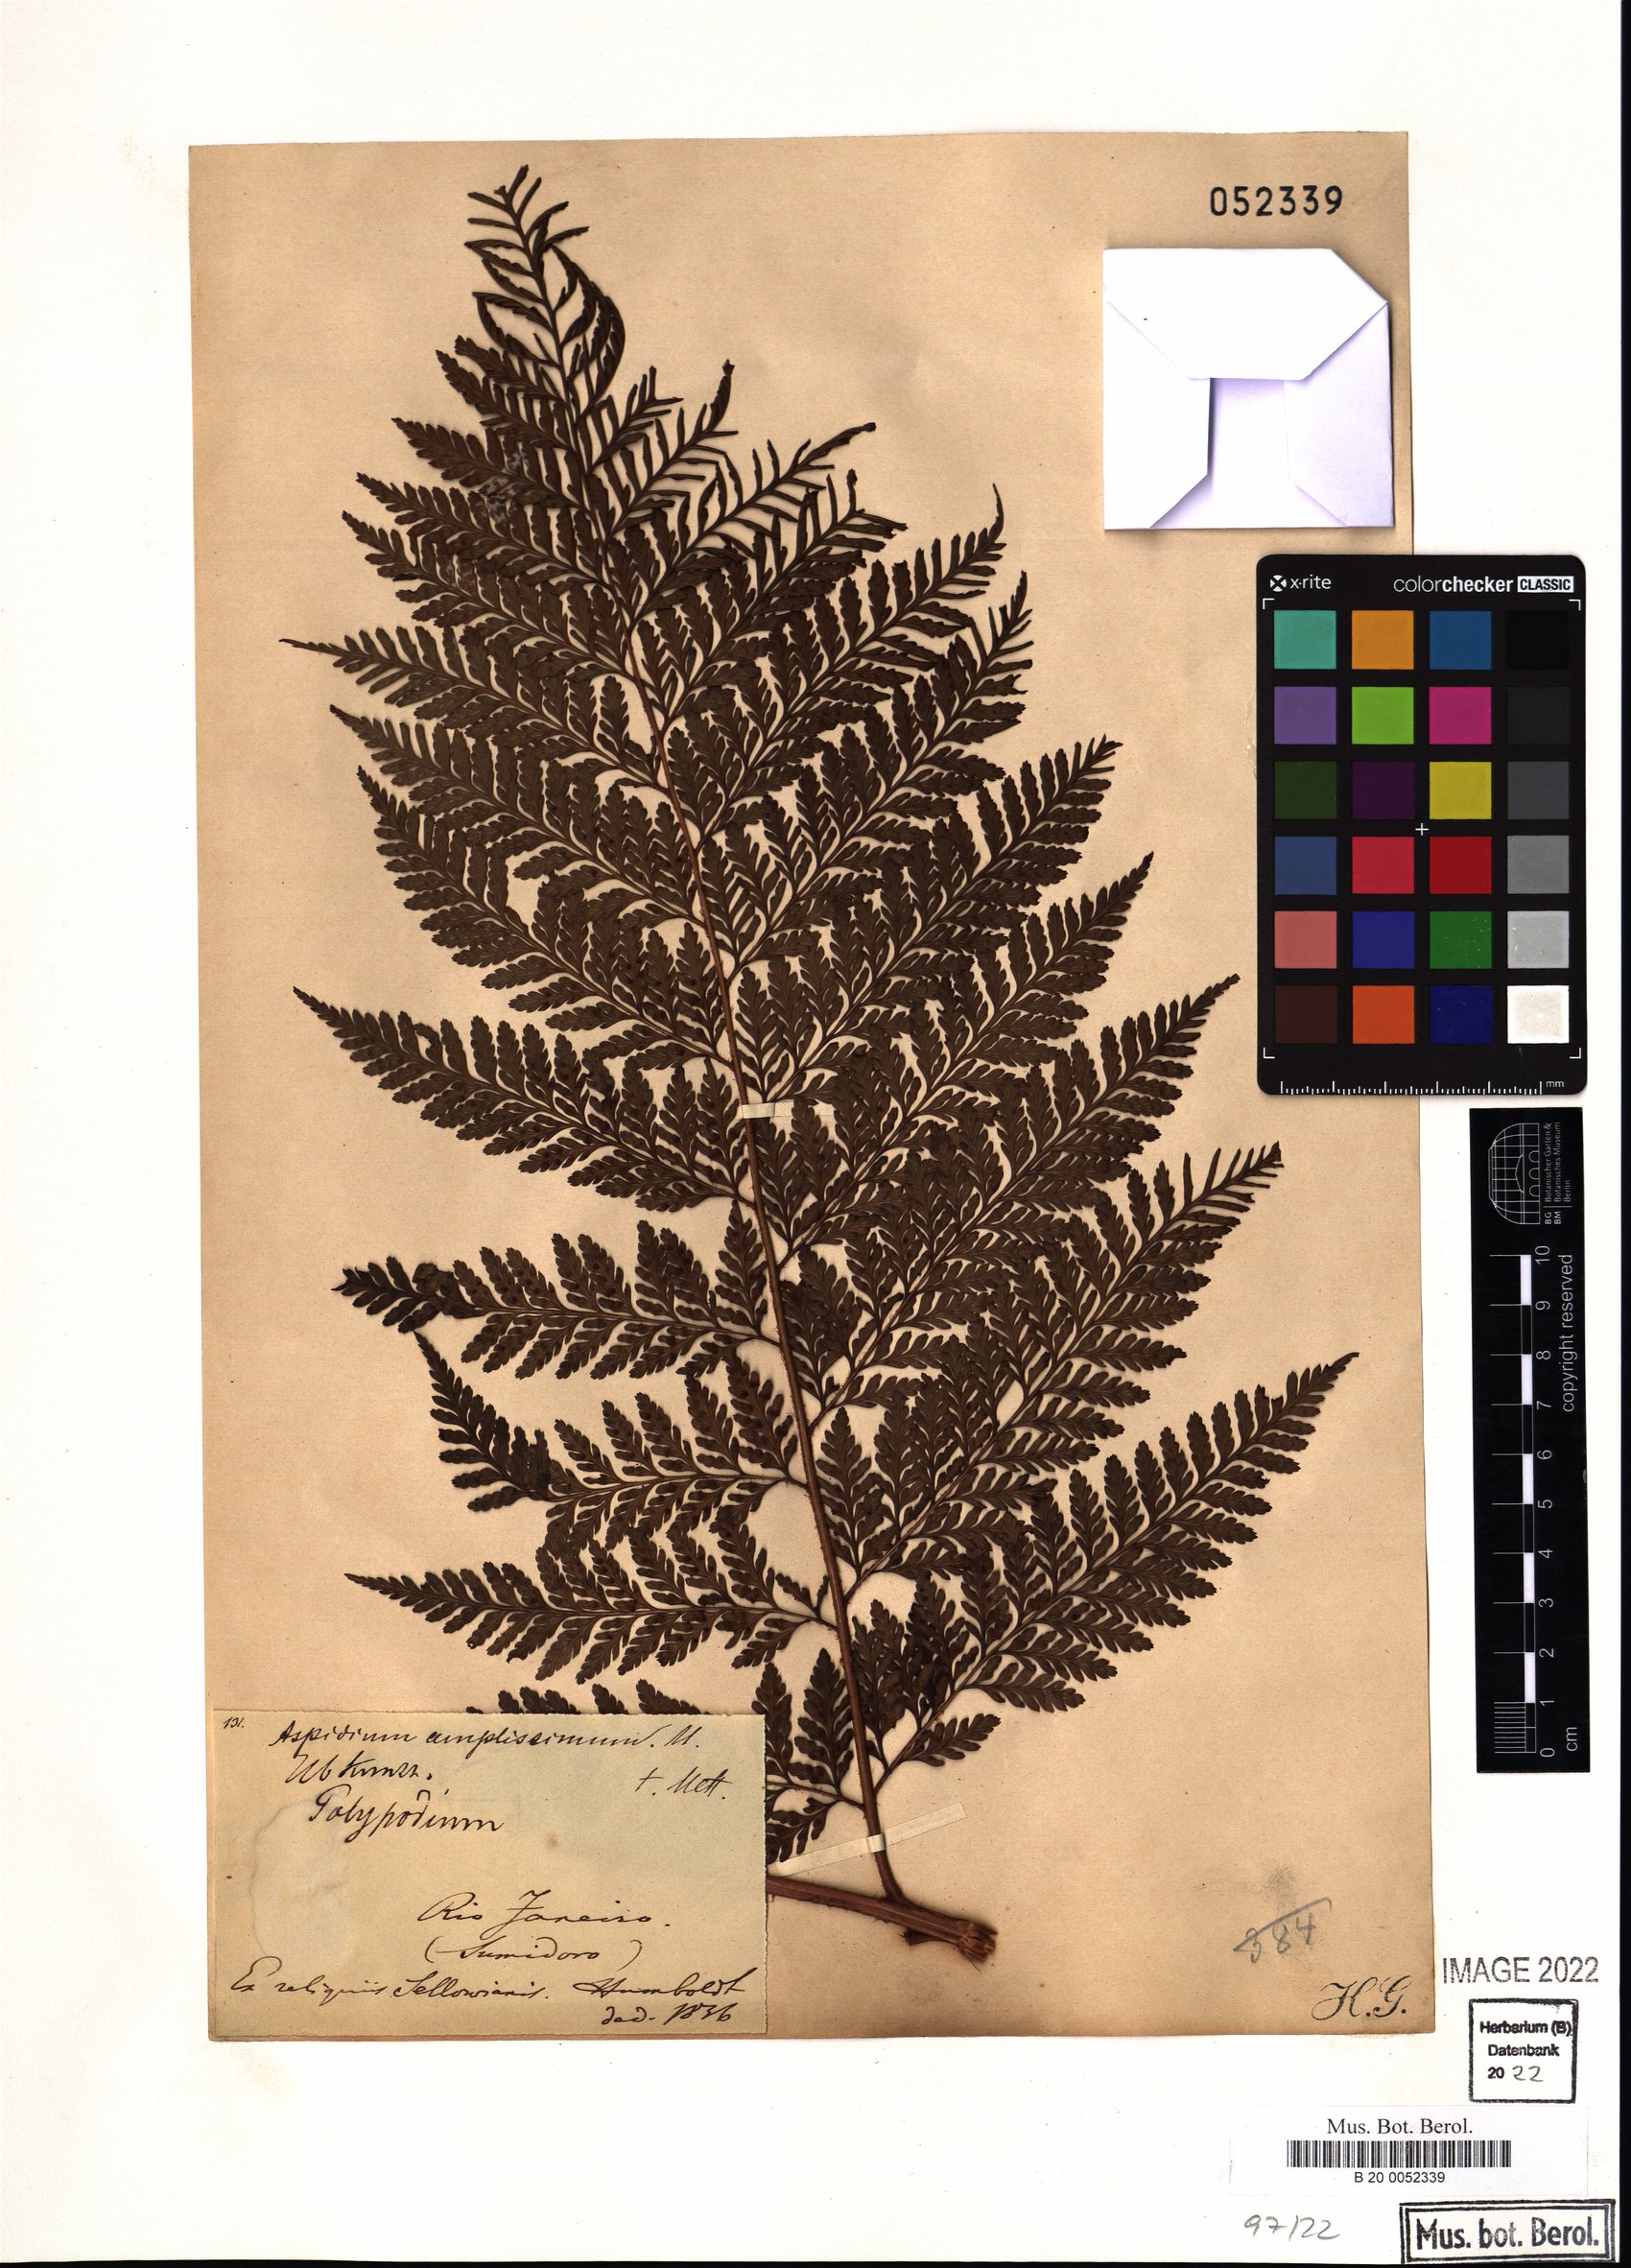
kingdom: Plantae
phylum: Tracheophyta
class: Polypodiopsida
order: Polypodiales
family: Dryopteridaceae
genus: Lastreopsis
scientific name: Lastreopsis amplissima
